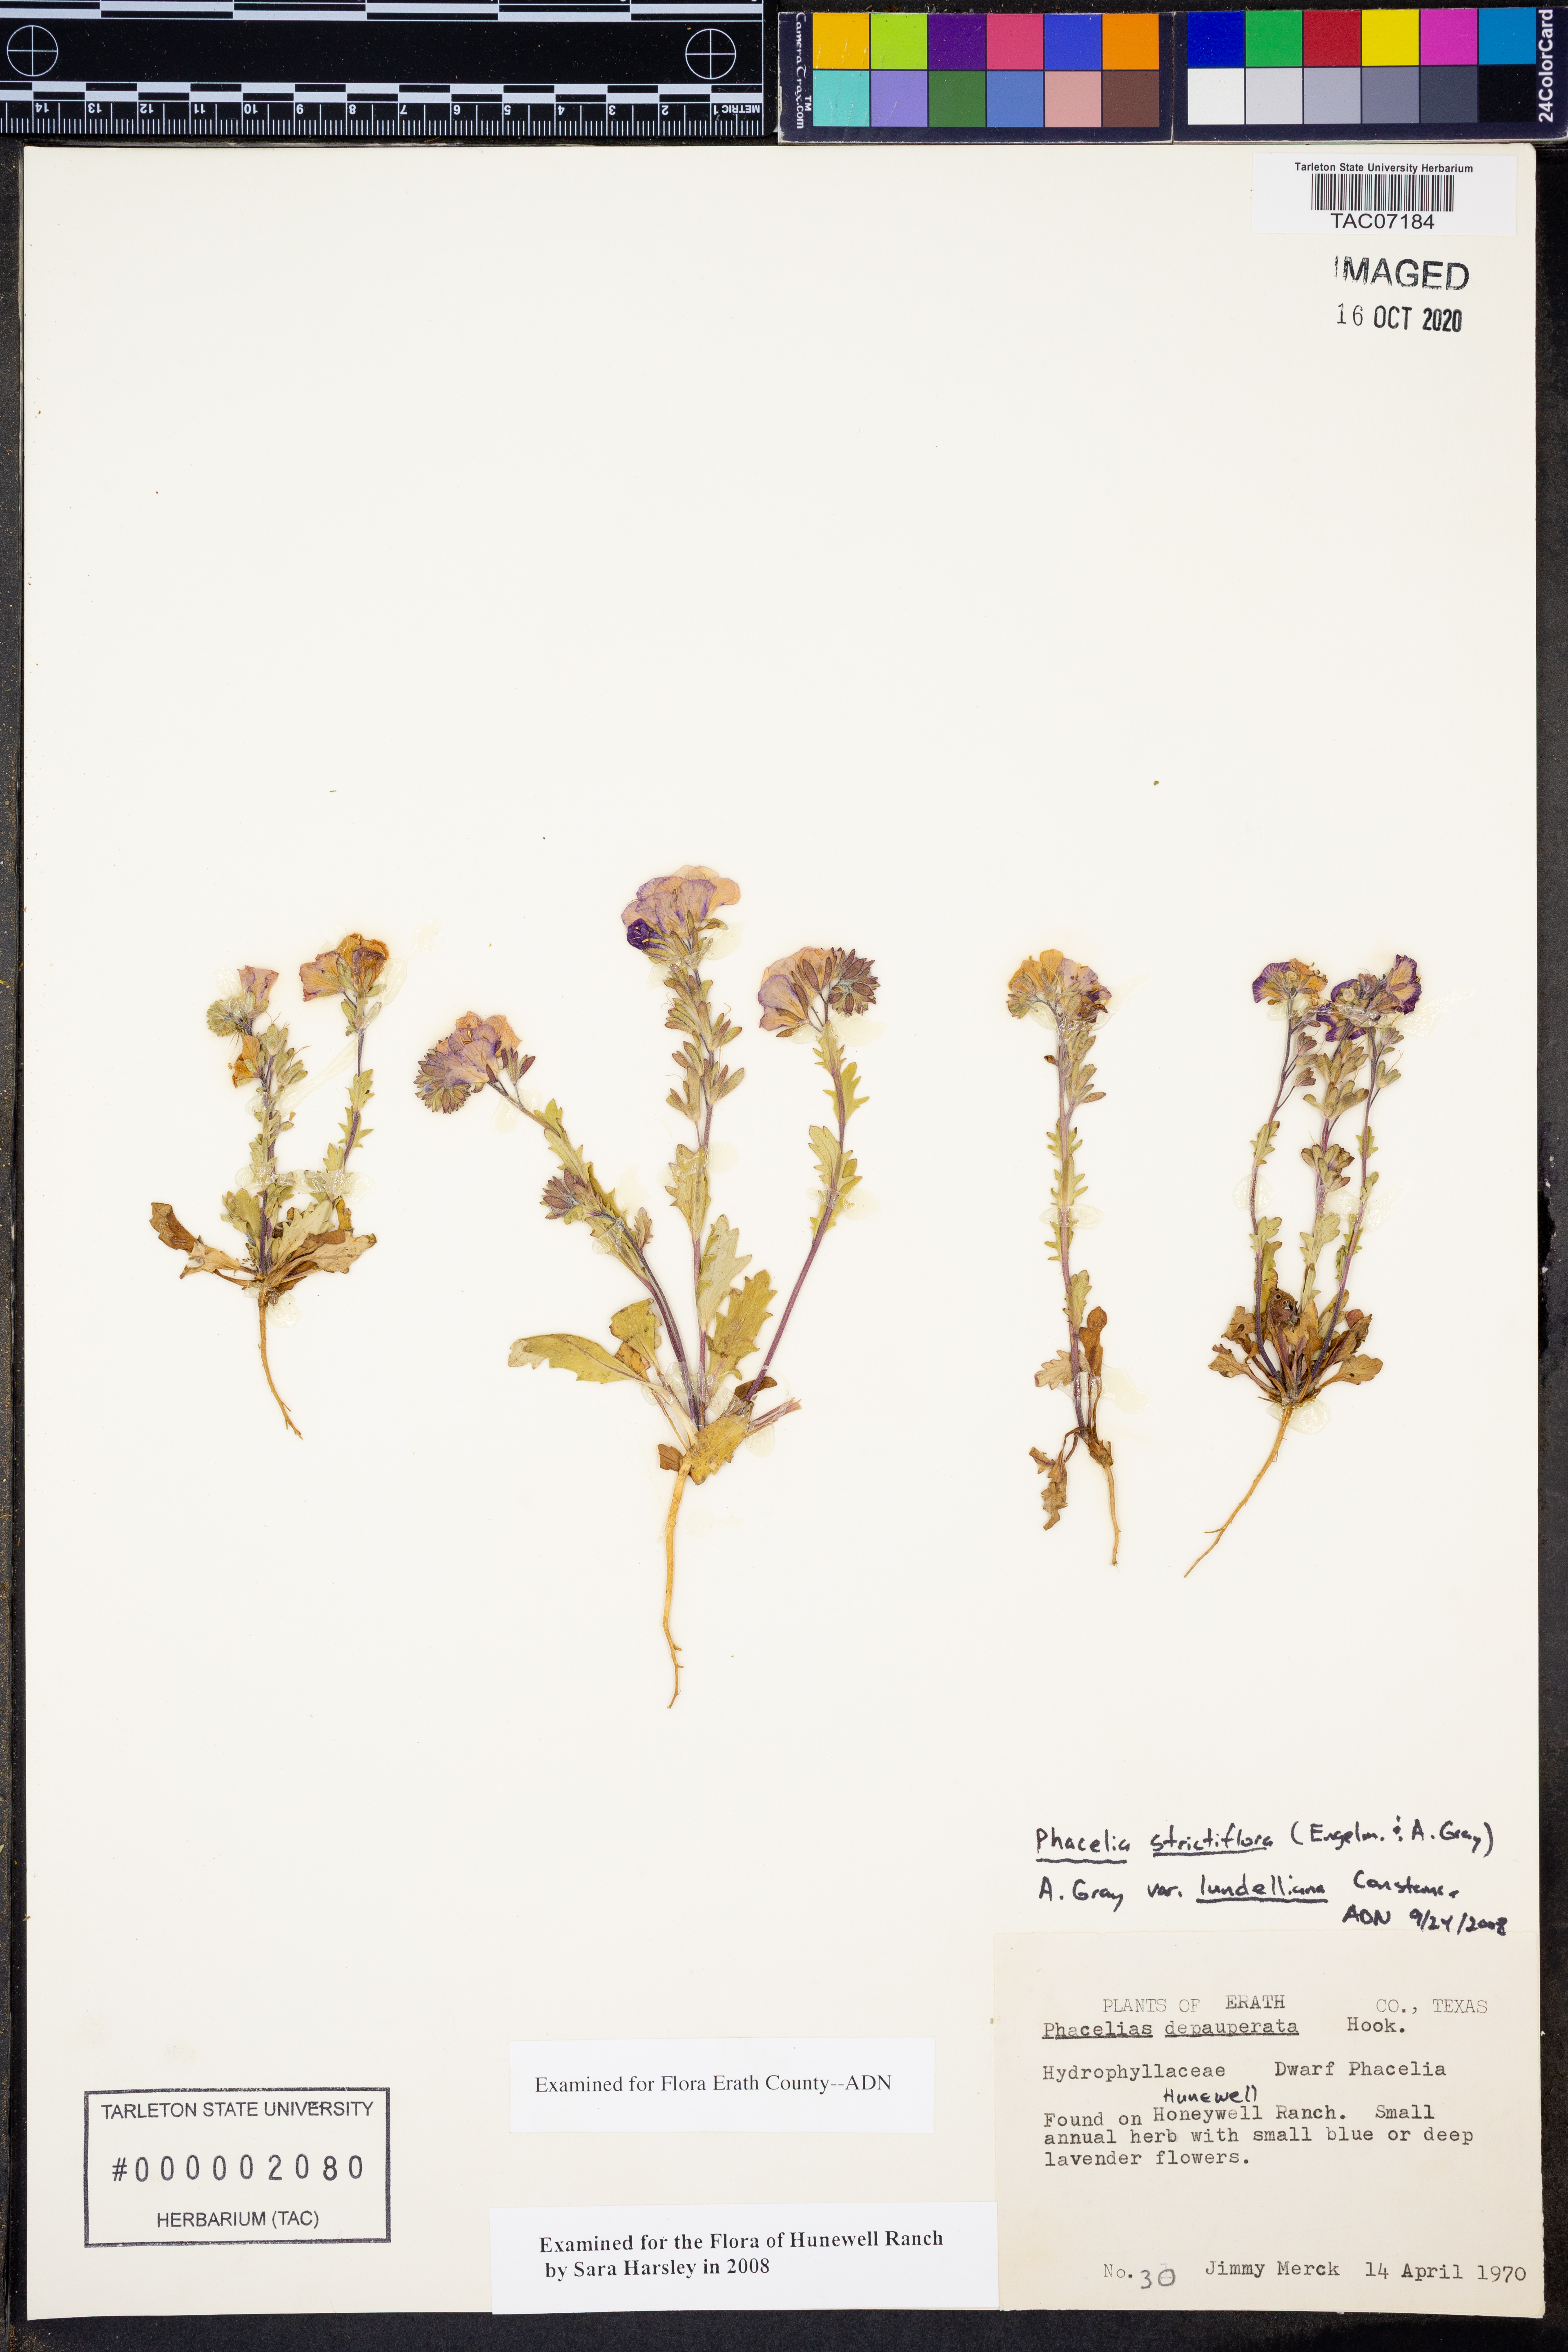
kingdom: Plantae
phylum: Tracheophyta
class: Magnoliopsida
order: Boraginales
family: Hydrophyllaceae
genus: Phacelia
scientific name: Phacelia strictiflora
